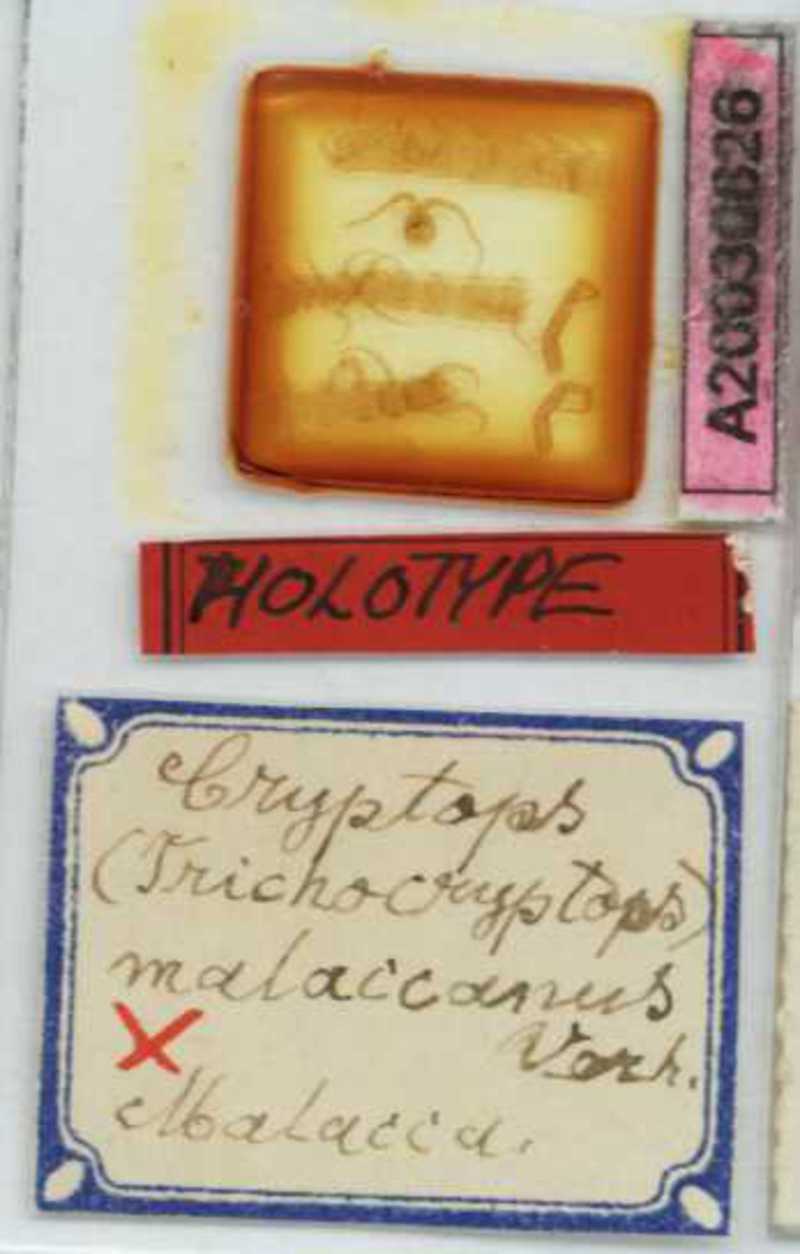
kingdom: Animalia
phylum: Arthropoda
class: Chilopoda
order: Scolopendromorpha
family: Cryptopidae
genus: Cryptops
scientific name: Cryptops malaccanus
